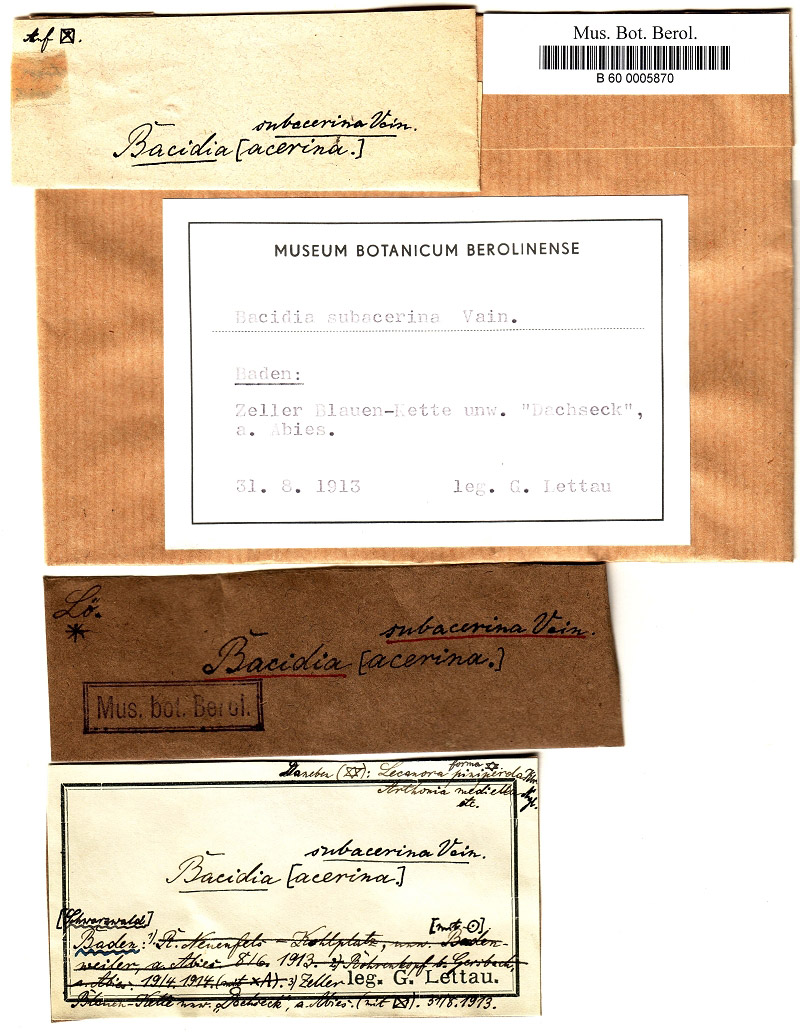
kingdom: Fungi
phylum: Ascomycota
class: Lecanoromycetes
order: Lecanorales
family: Ramalinaceae
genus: Bacidia
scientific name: Bacidia laurocerasi
